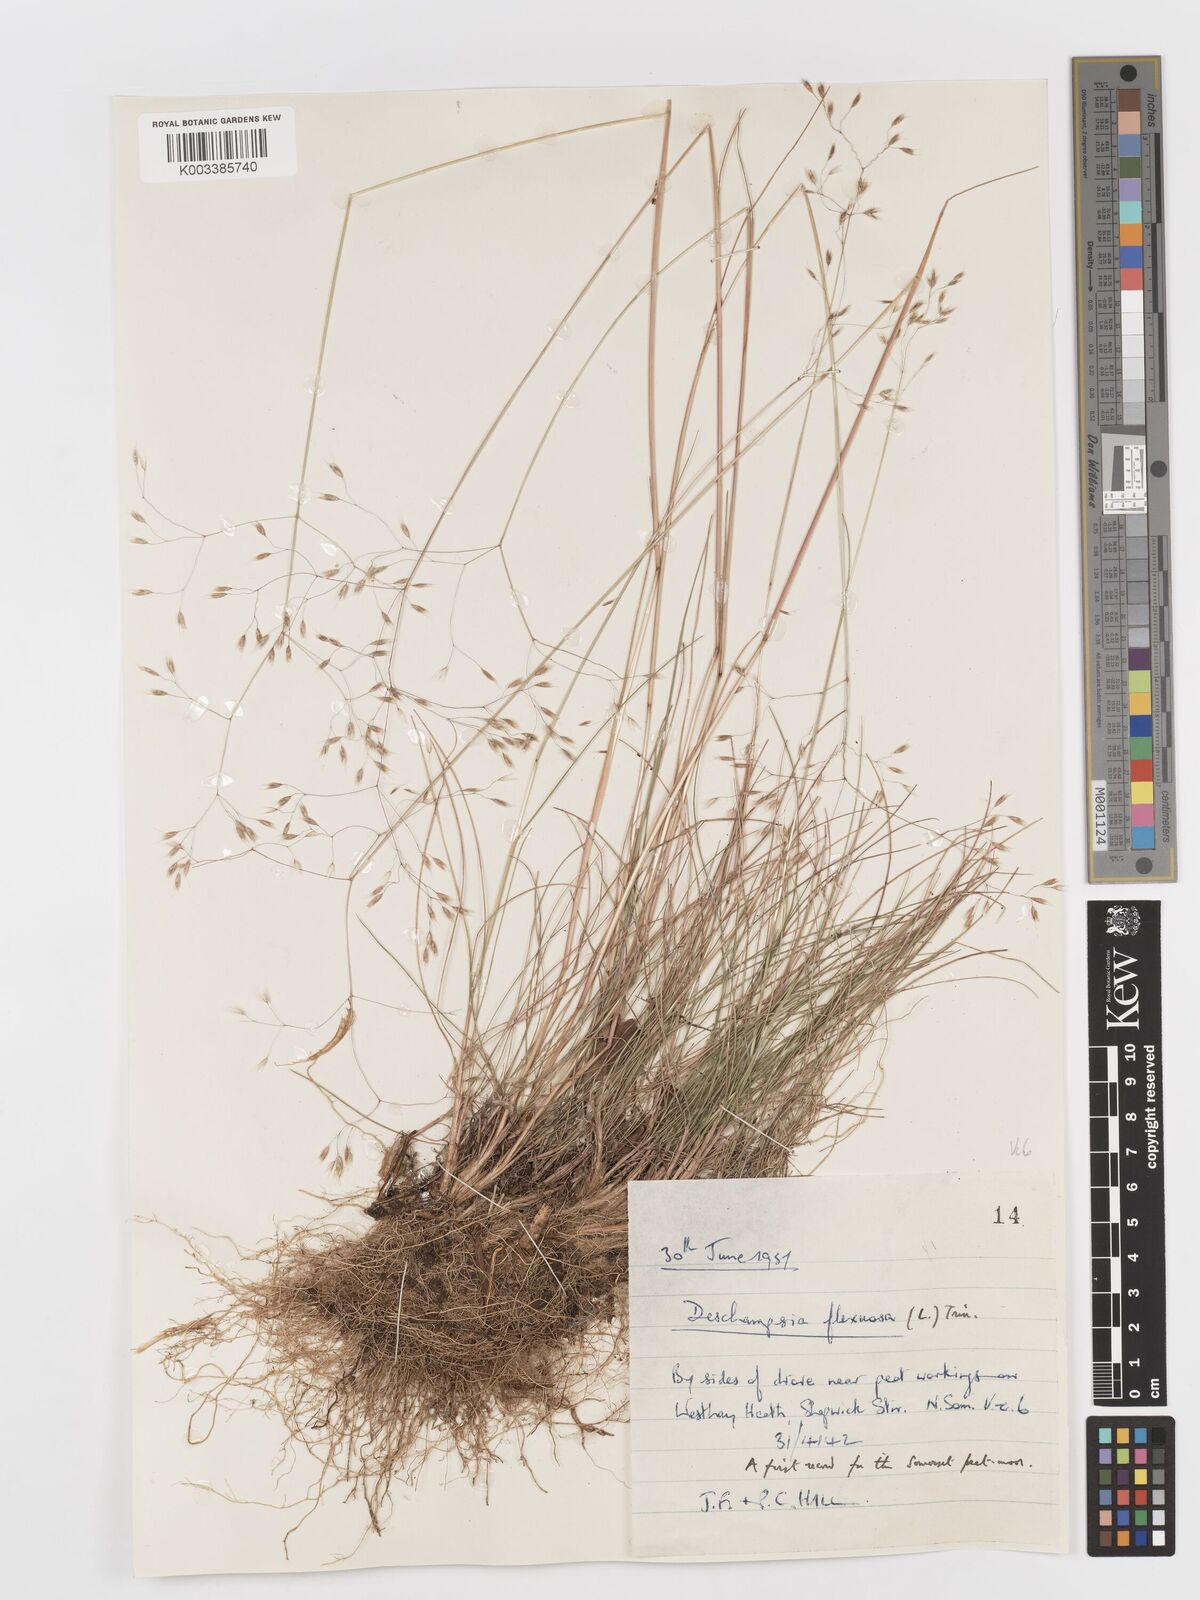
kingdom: Plantae
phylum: Tracheophyta
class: Liliopsida
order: Poales
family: Poaceae
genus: Avenella
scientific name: Avenella flexuosa
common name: Wavy hairgrass
